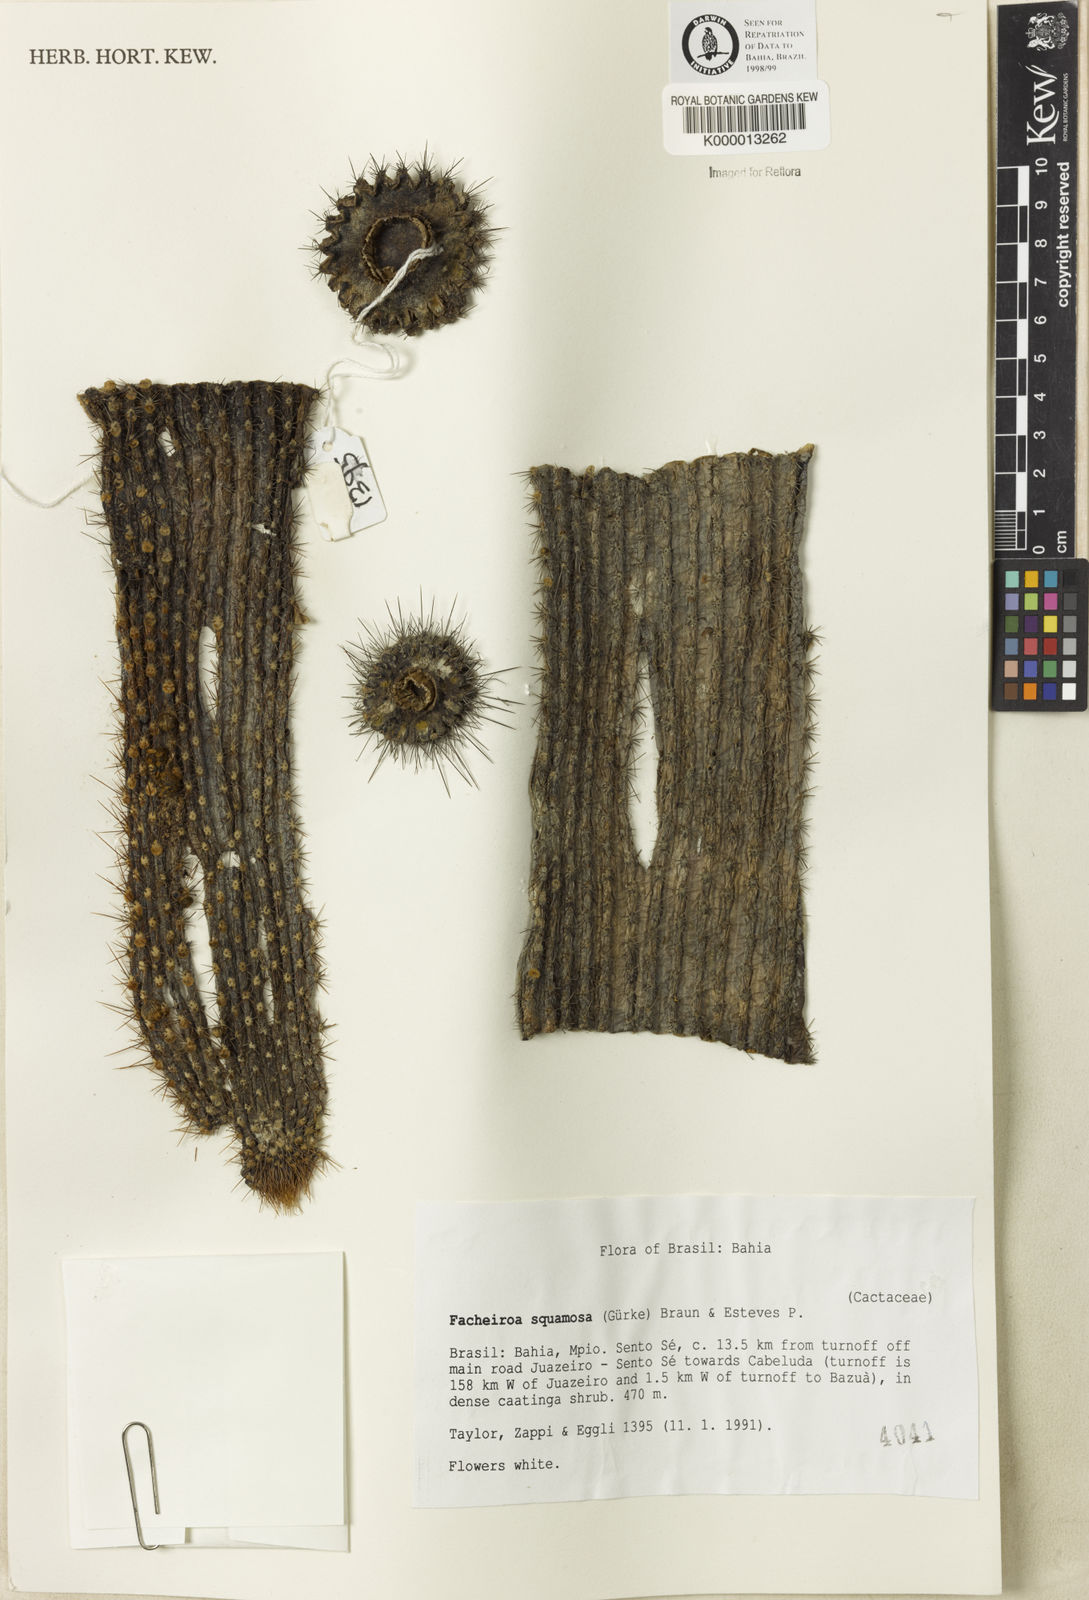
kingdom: Plantae
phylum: Tracheophyta
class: Magnoliopsida
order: Caryophyllales
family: Cactaceae
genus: Facheiroa
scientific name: Facheiroa squamosa
